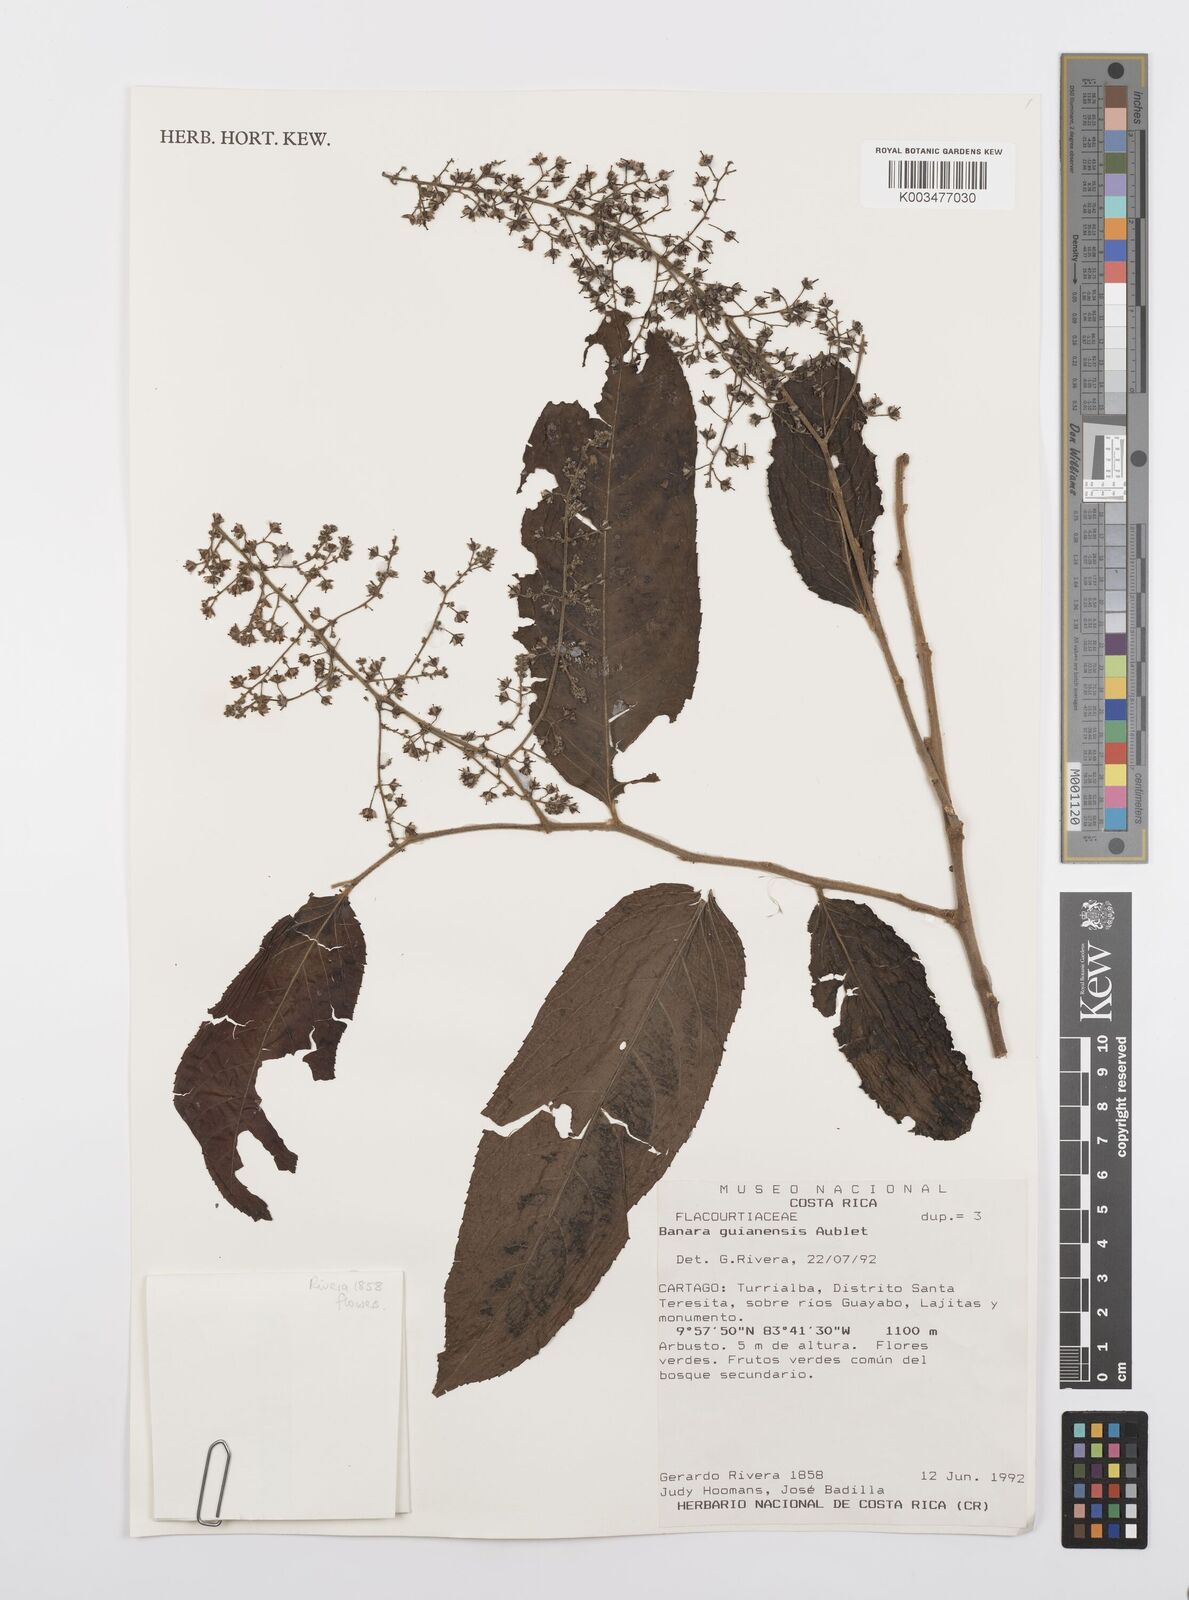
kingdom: Plantae
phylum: Tracheophyta
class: Magnoliopsida
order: Malpighiales
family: Salicaceae
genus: Banara
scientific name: Banara guianensis
